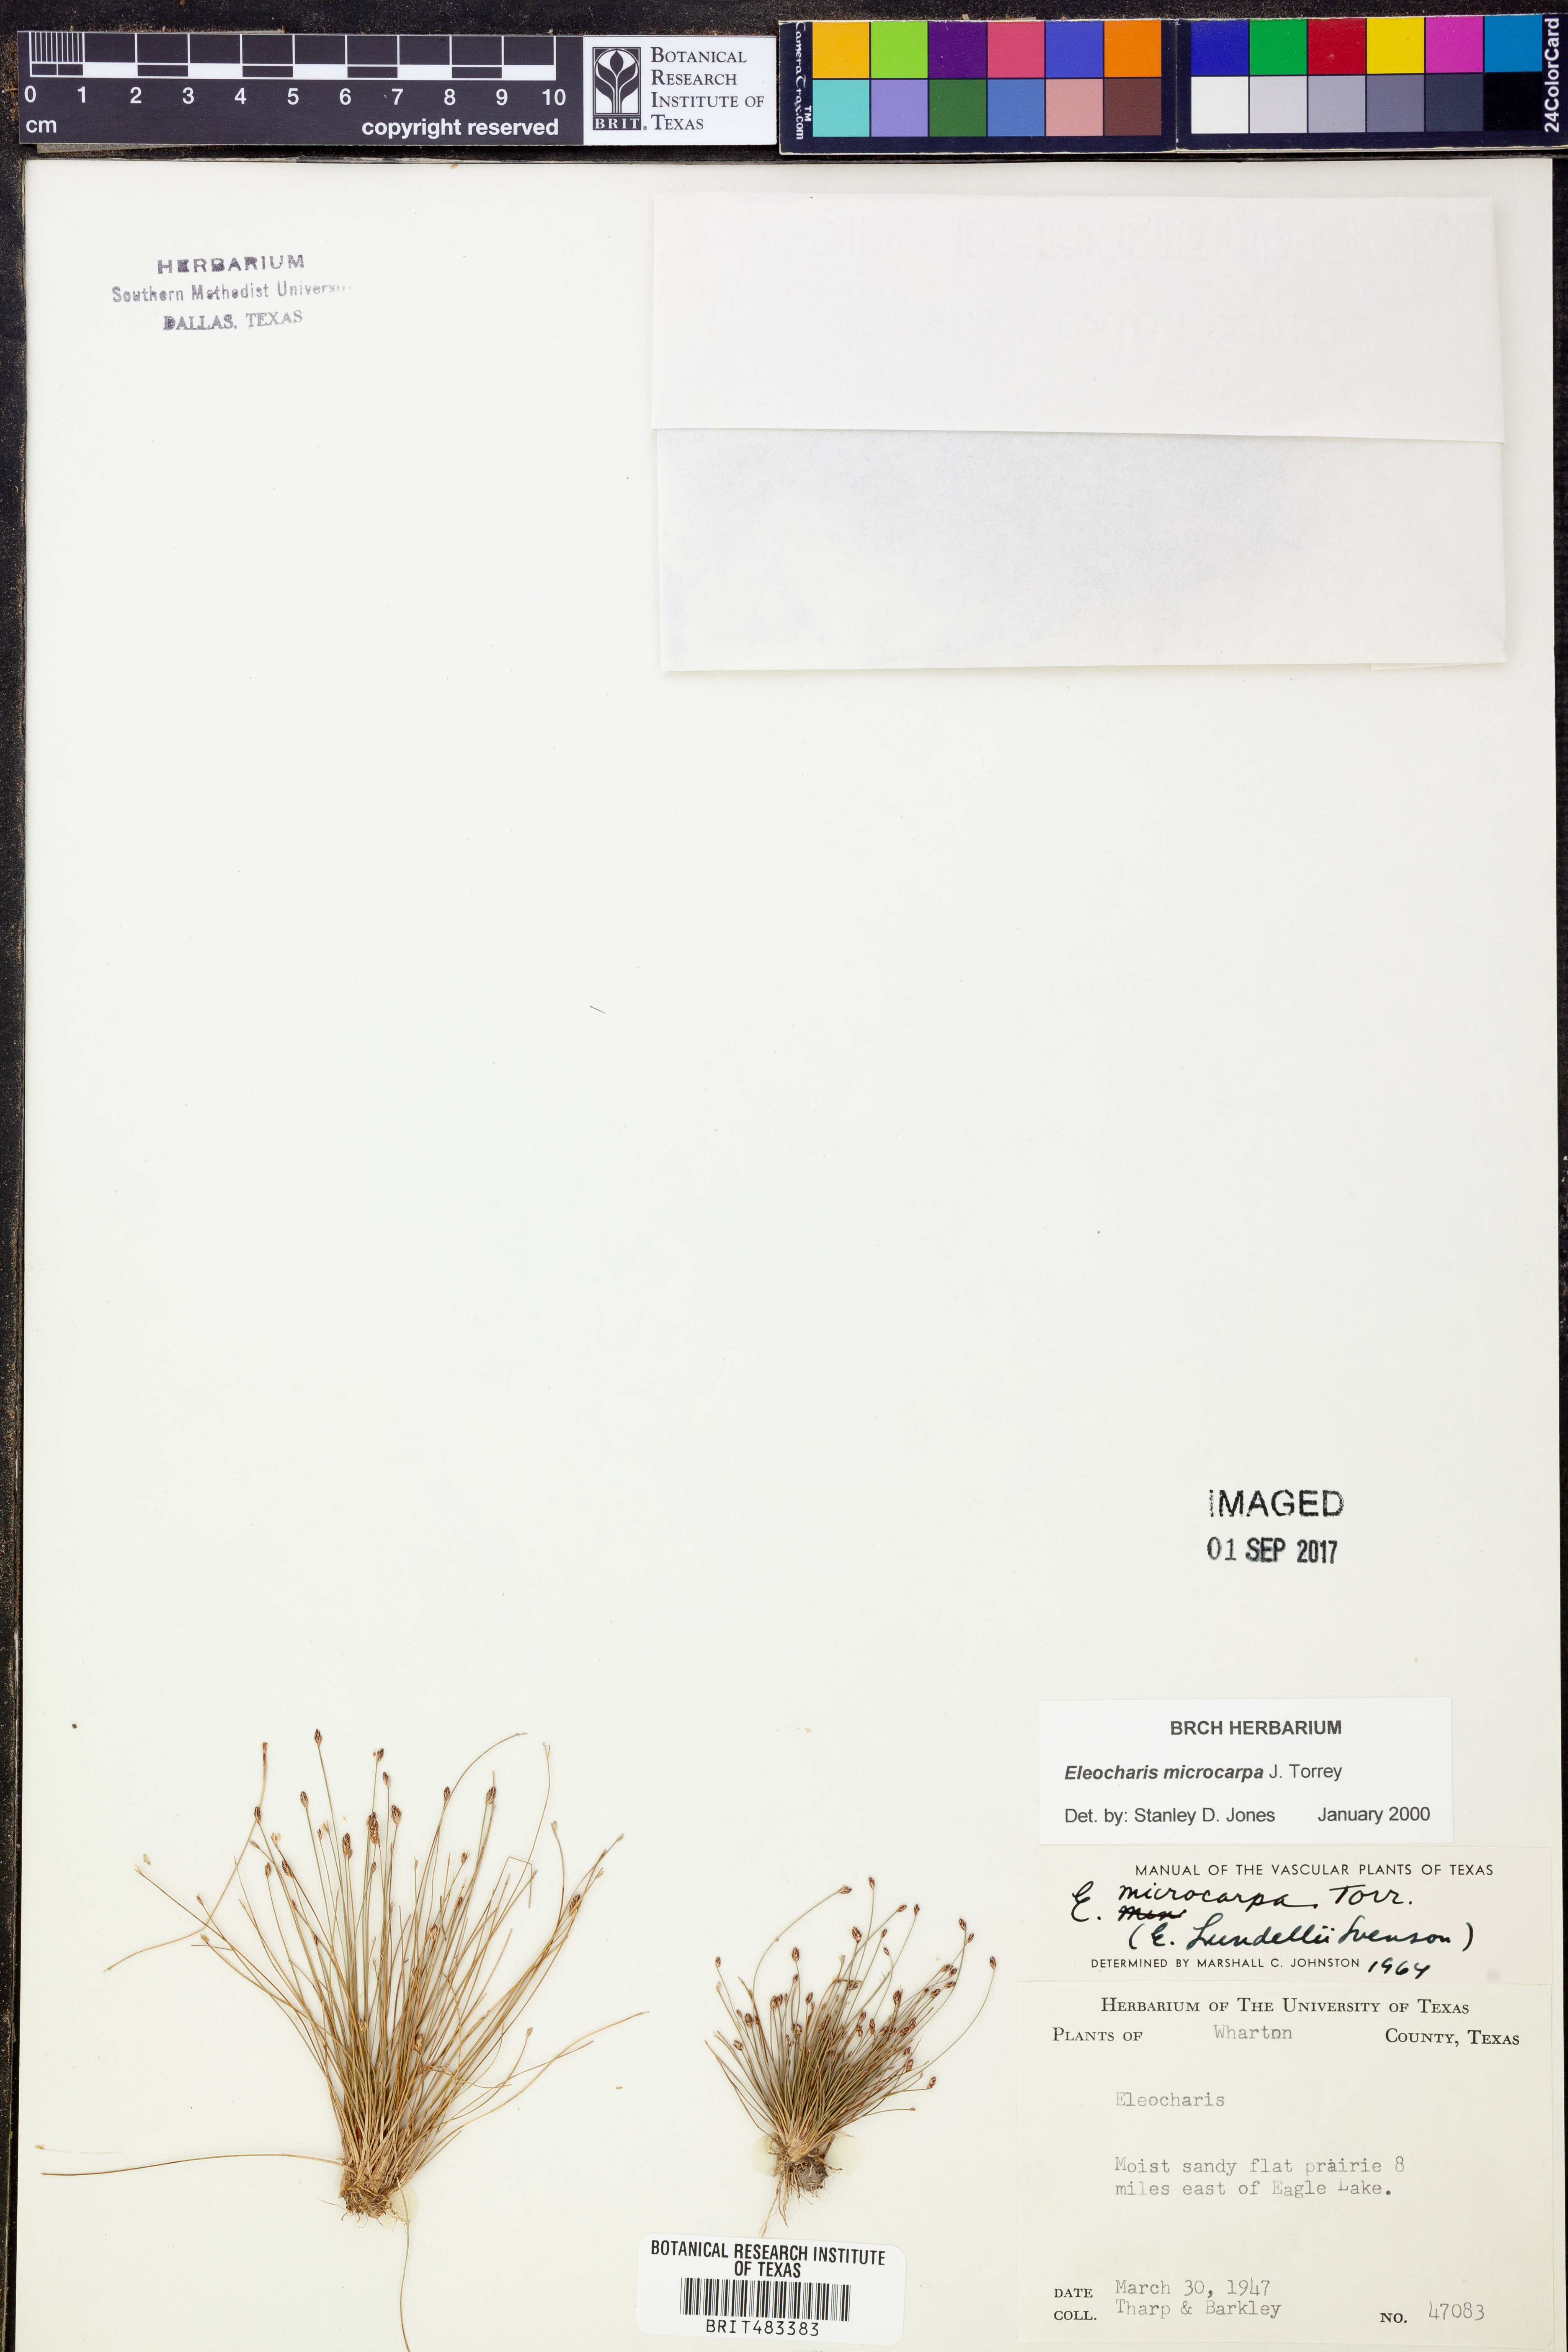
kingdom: Plantae
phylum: Tracheophyta
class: Liliopsida
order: Poales
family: Cyperaceae
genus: Eleocharis
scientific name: Eleocharis microcarpa
